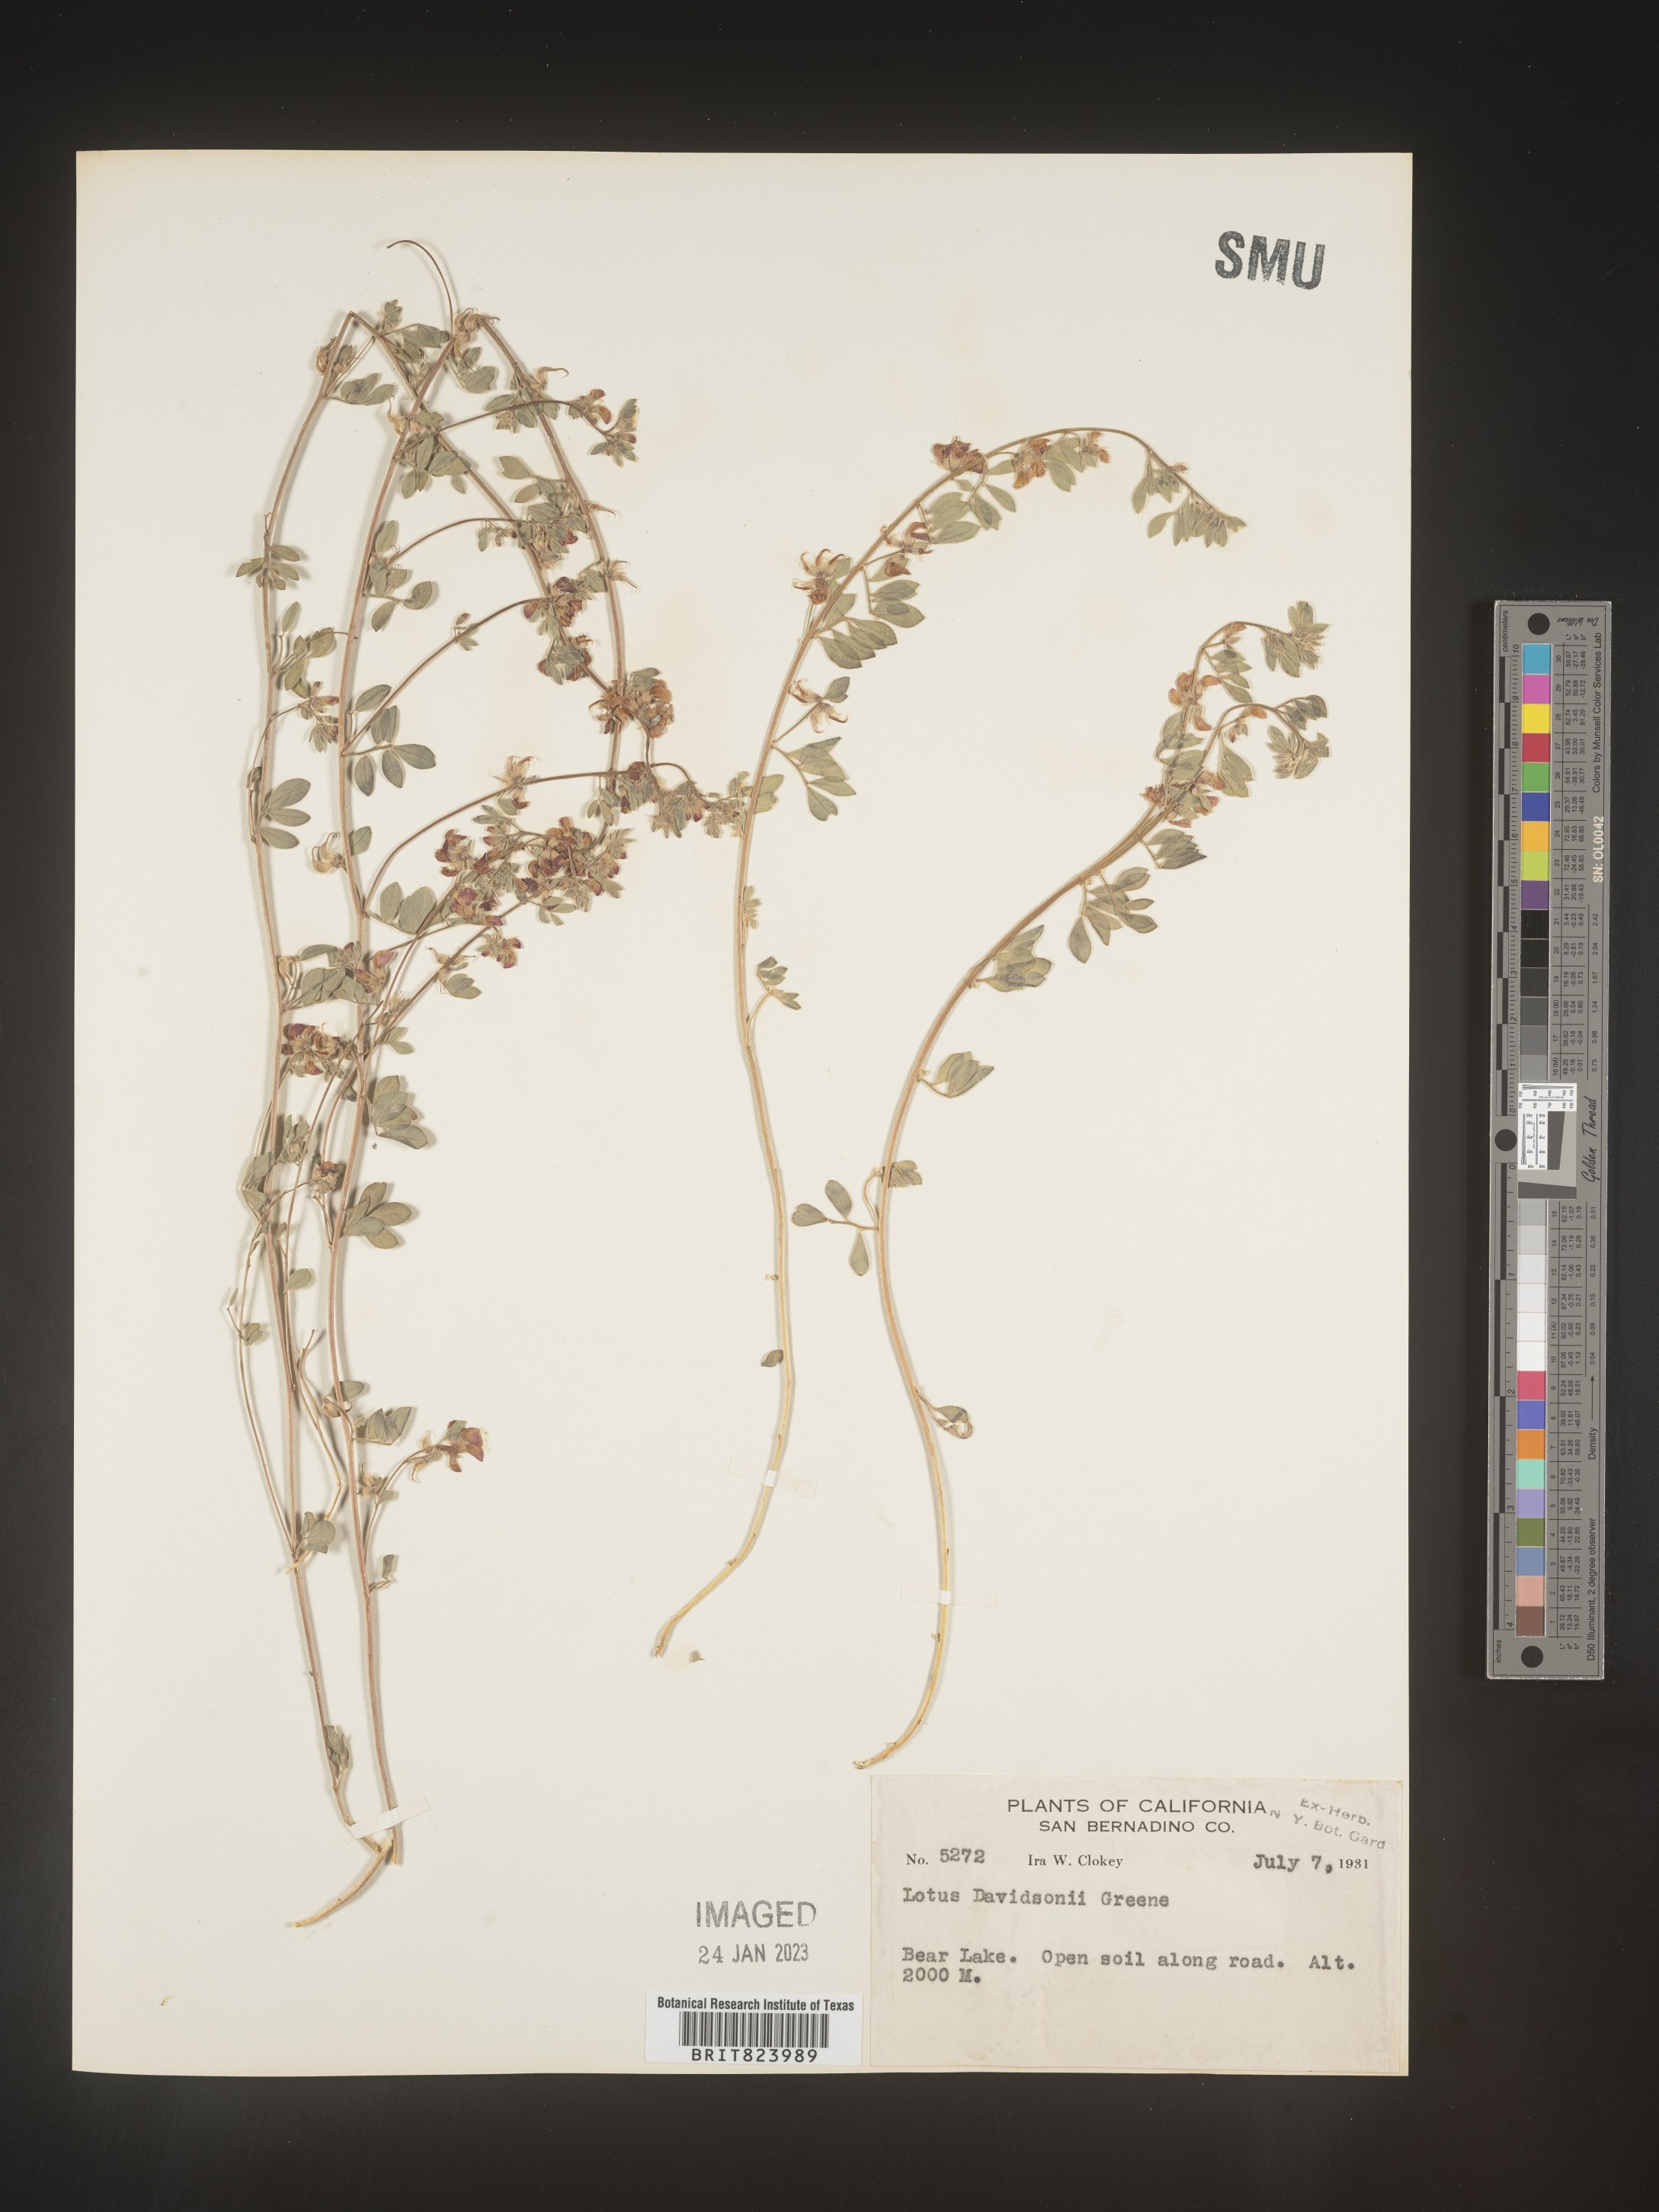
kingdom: Plantae
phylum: Tracheophyta
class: Magnoliopsida
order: Fabales
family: Fabaceae
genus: Lotus
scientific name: Lotus
